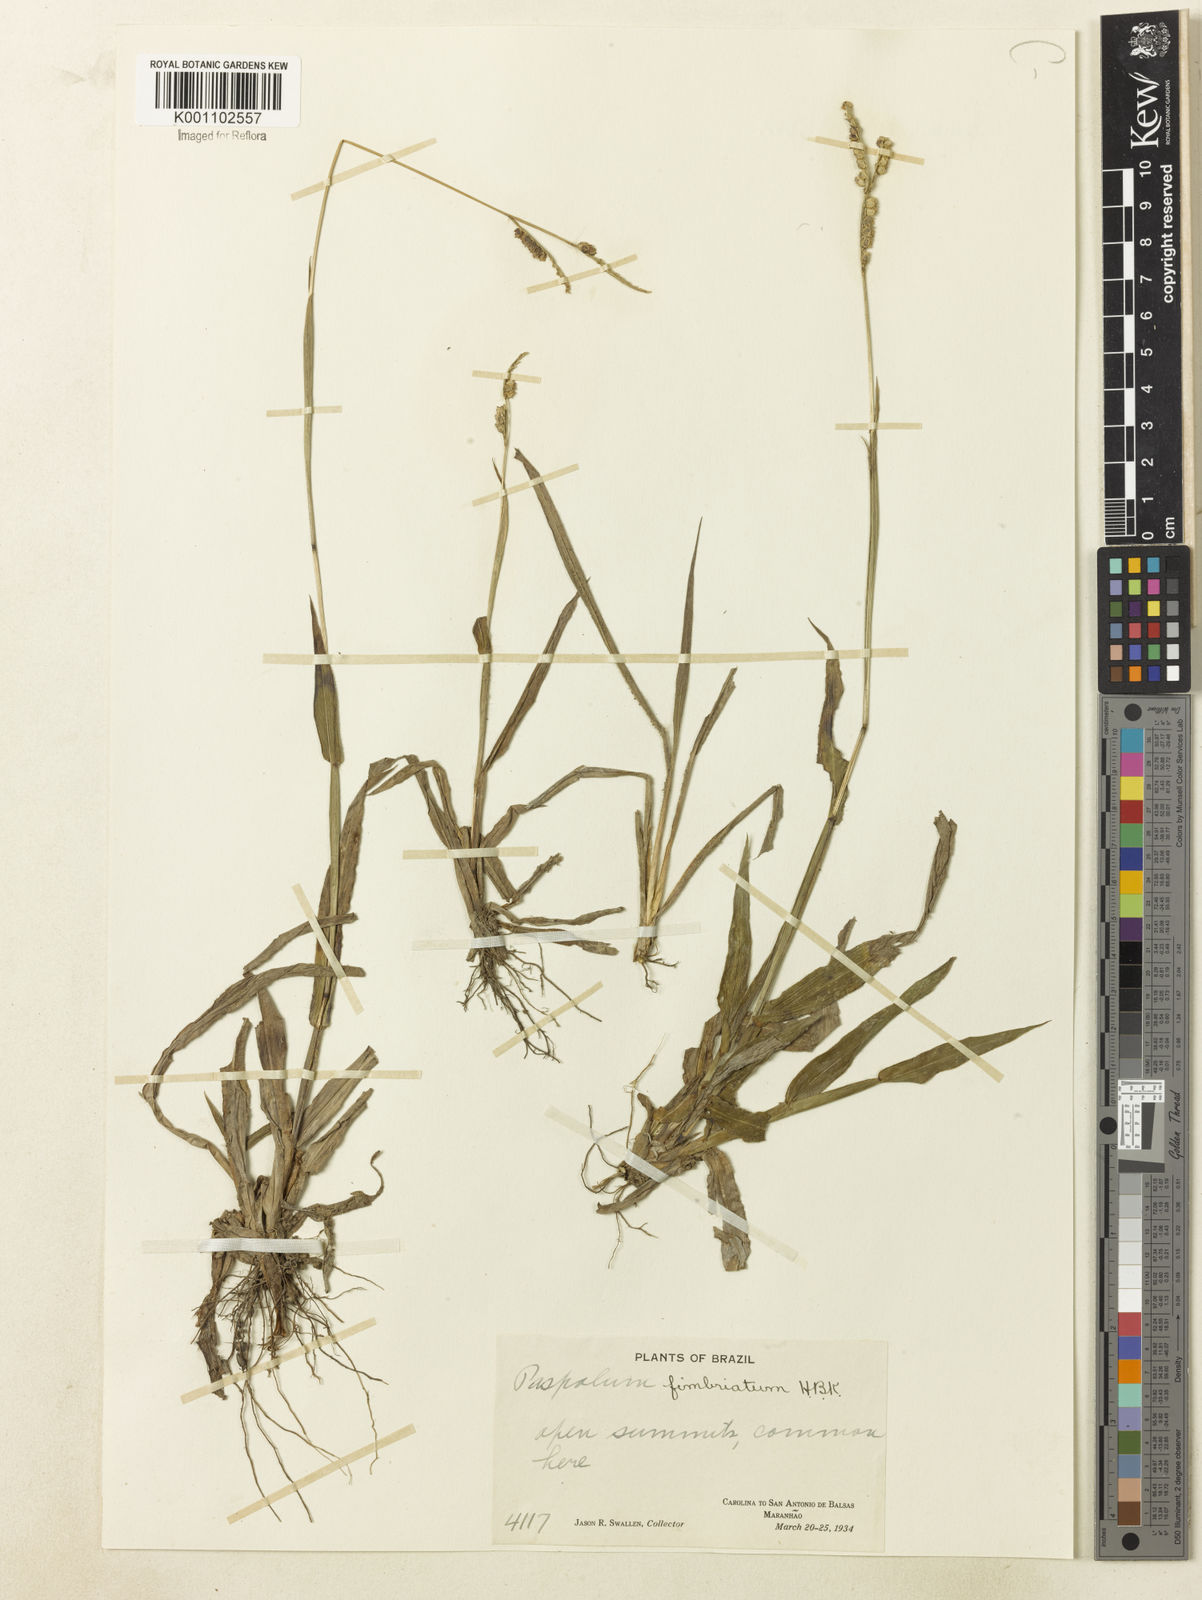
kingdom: Plantae
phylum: Tracheophyta
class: Liliopsida
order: Poales
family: Poaceae
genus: Paspalum
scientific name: Paspalum fimbriatum
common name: Panama crowngrass
